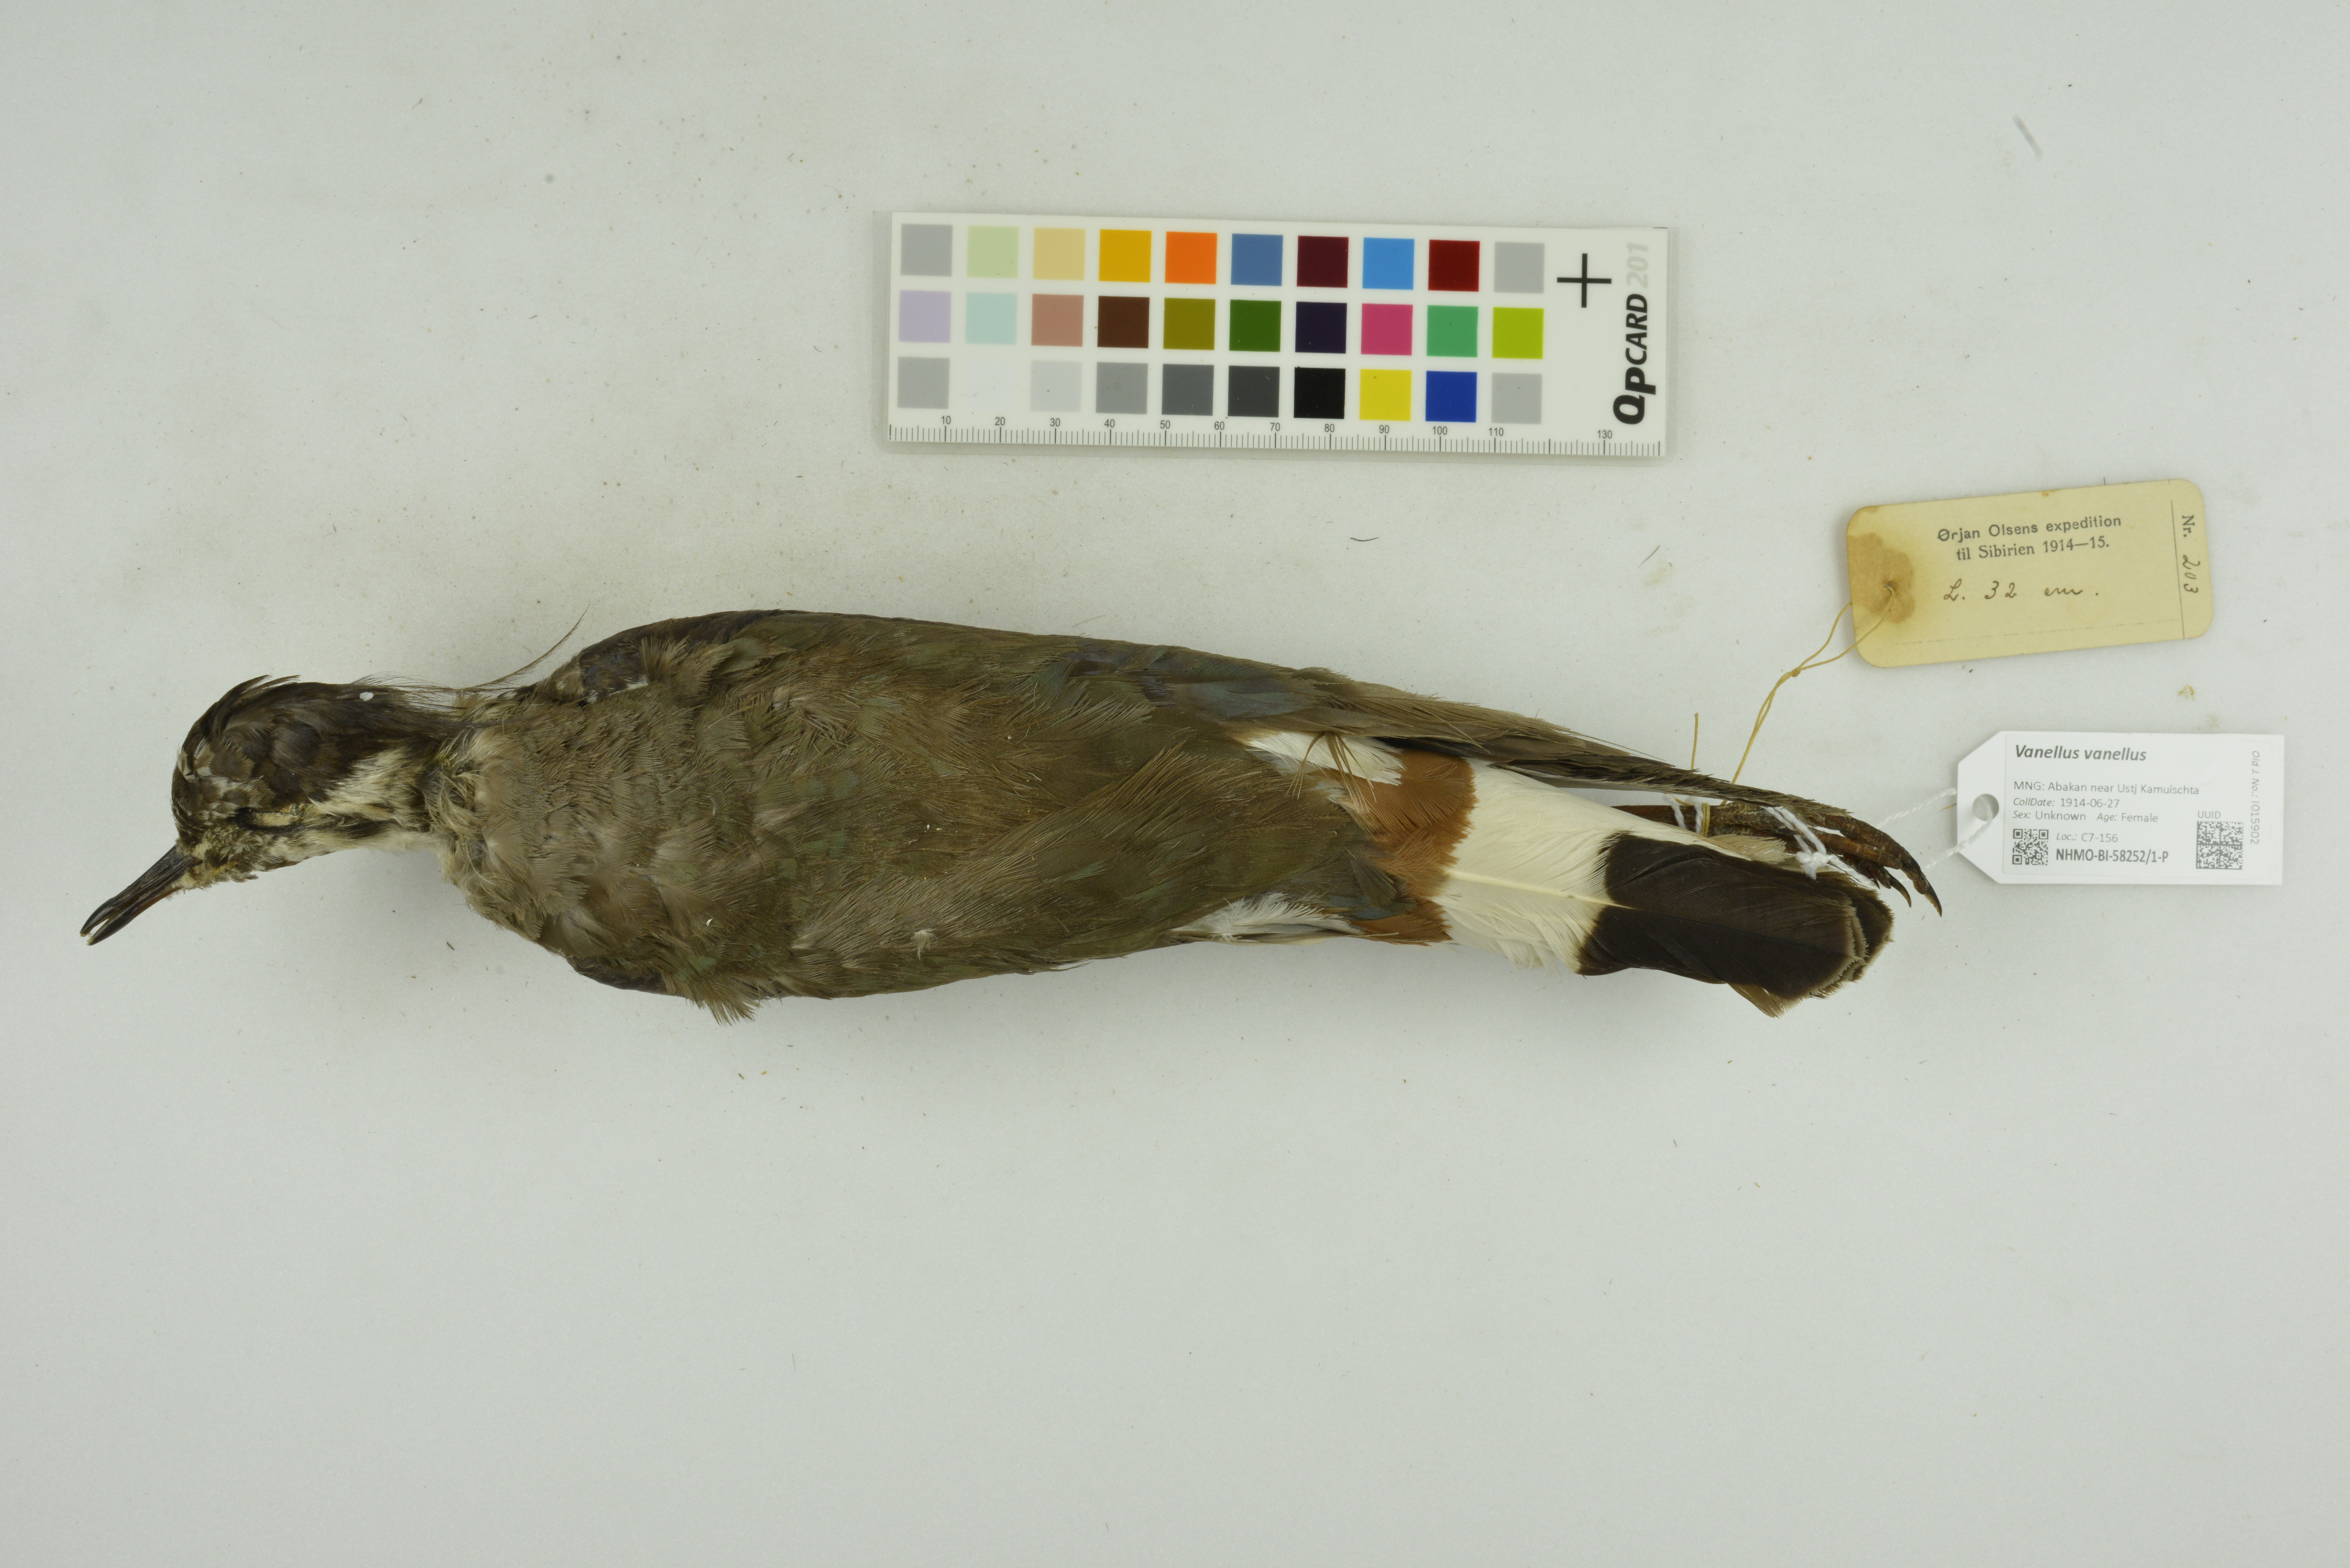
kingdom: Animalia
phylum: Chordata
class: Aves
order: Charadriiformes
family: Charadriidae
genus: Vanellus
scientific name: Vanellus vanellus
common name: Northern lapwing
